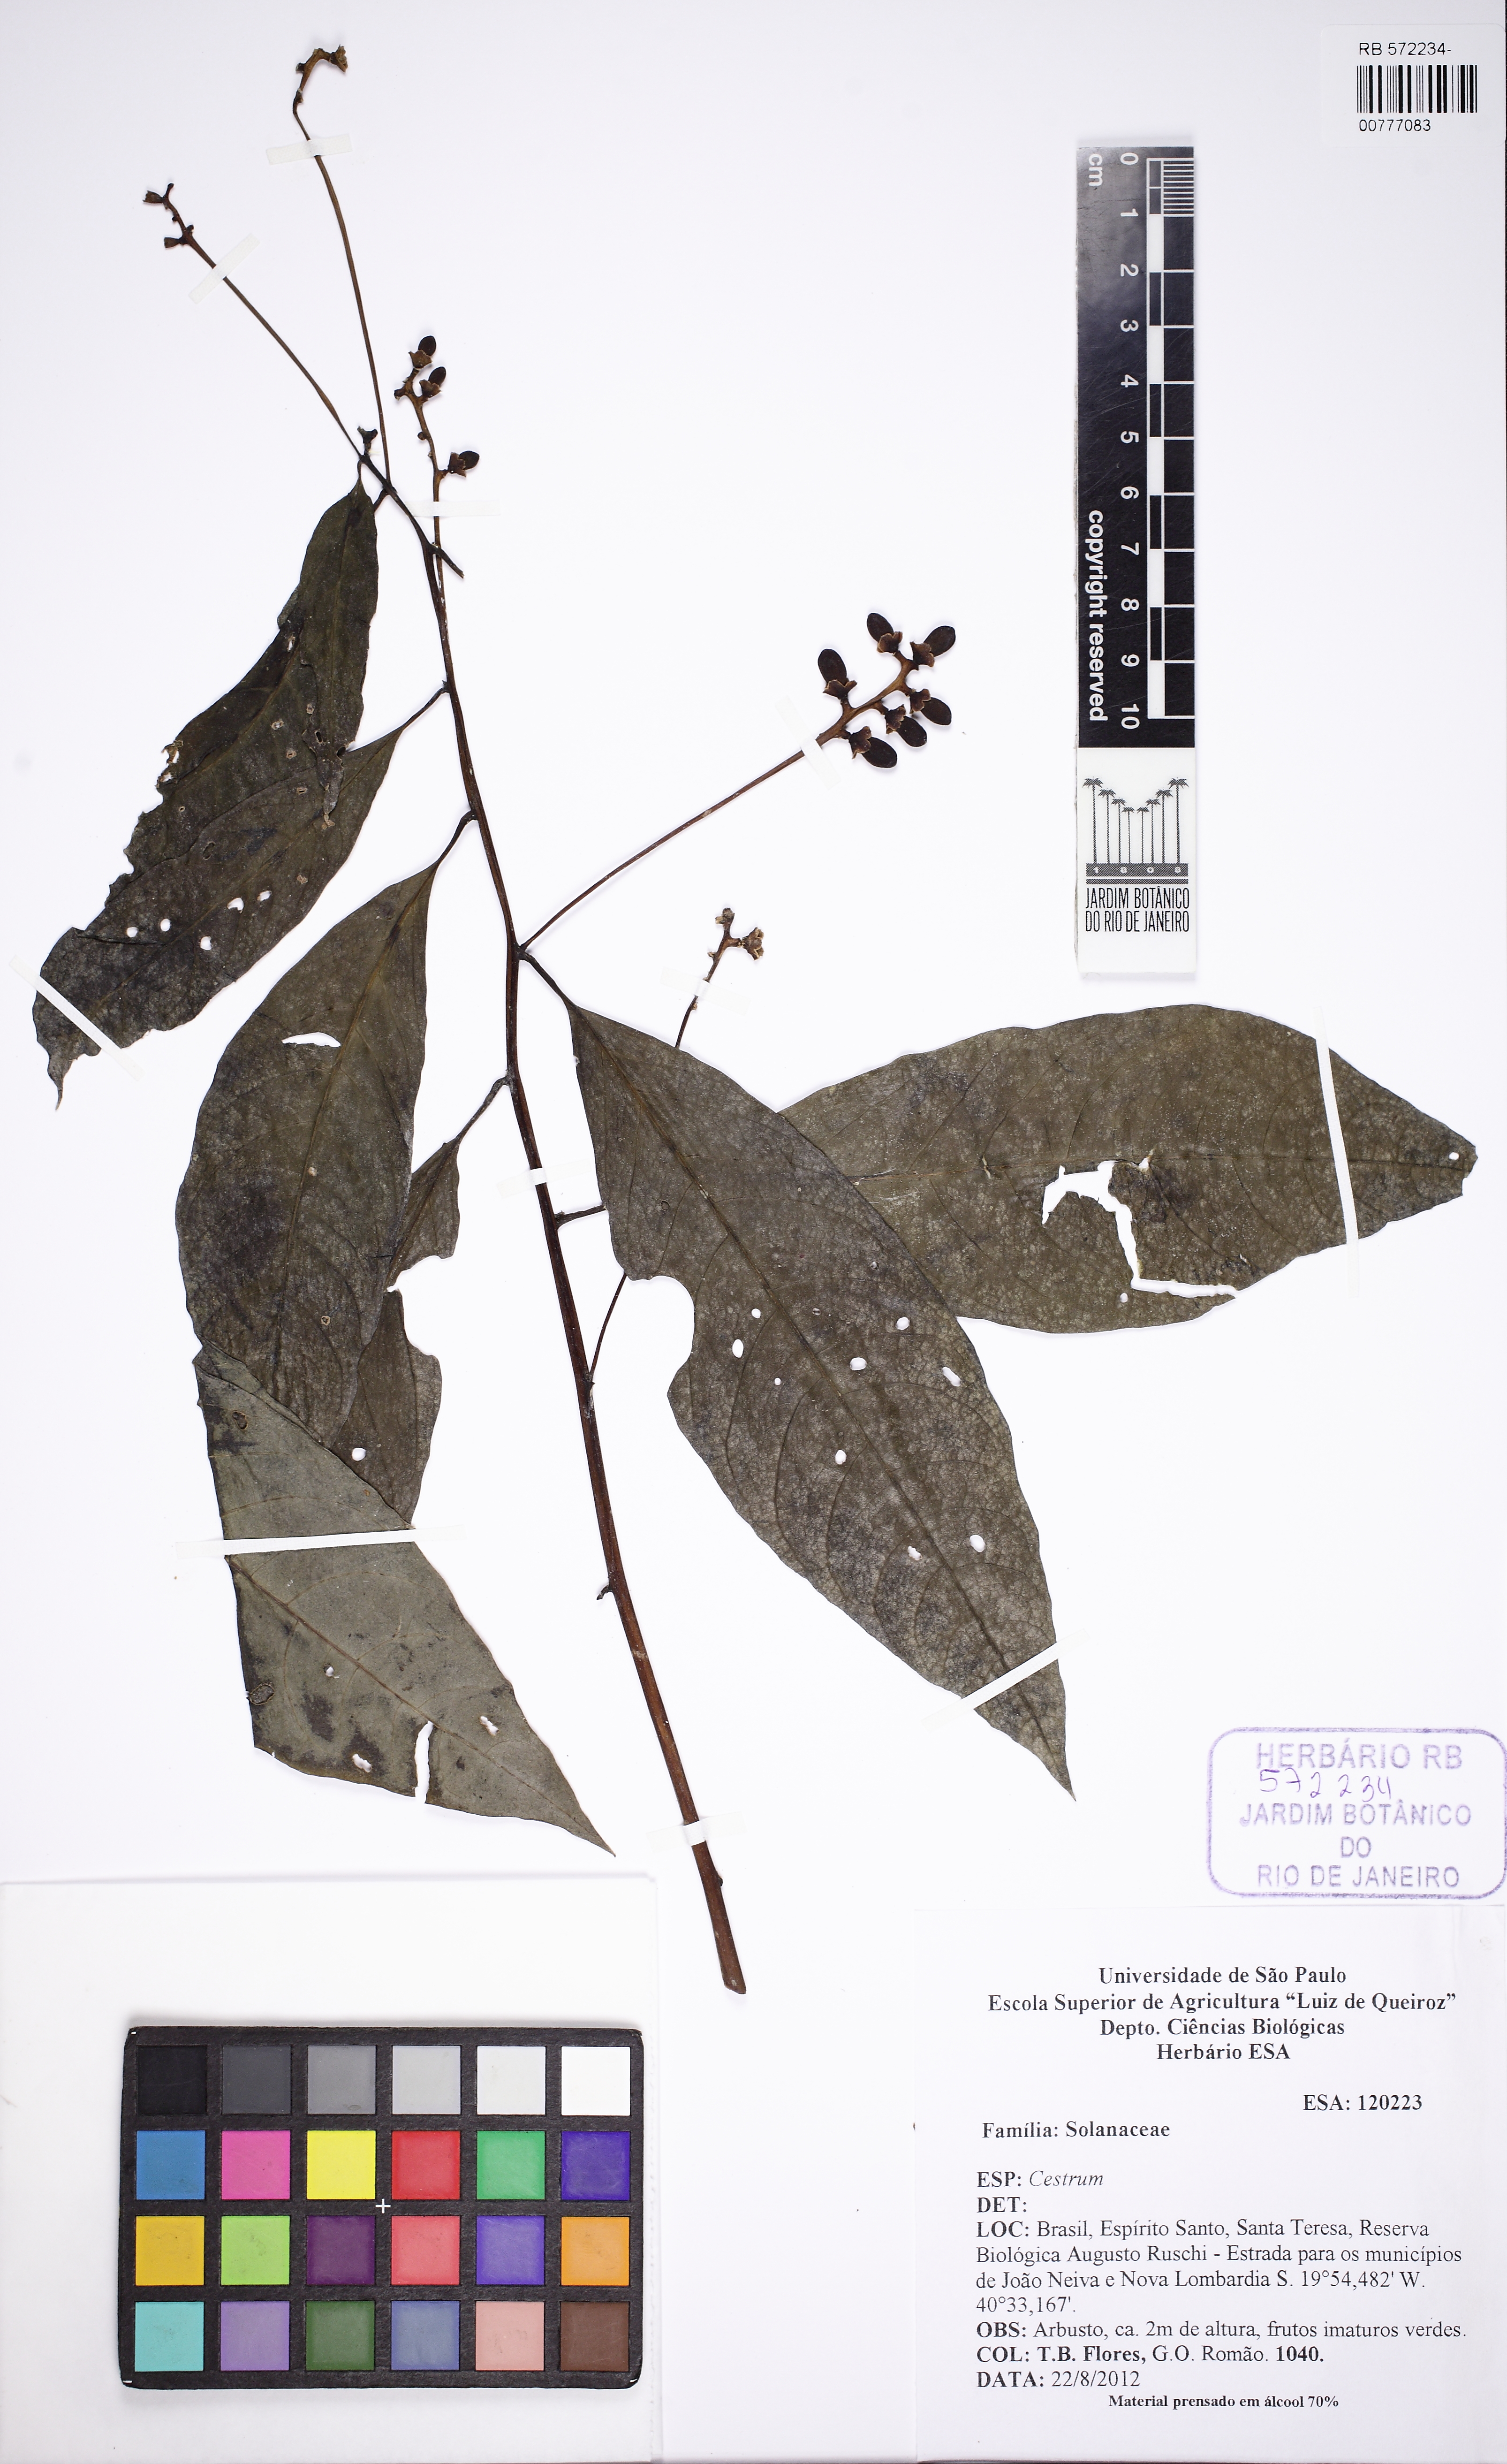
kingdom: Plantae
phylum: Tracheophyta
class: Magnoliopsida
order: Solanales
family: Solanaceae
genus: Cestrum
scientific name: Cestrum
